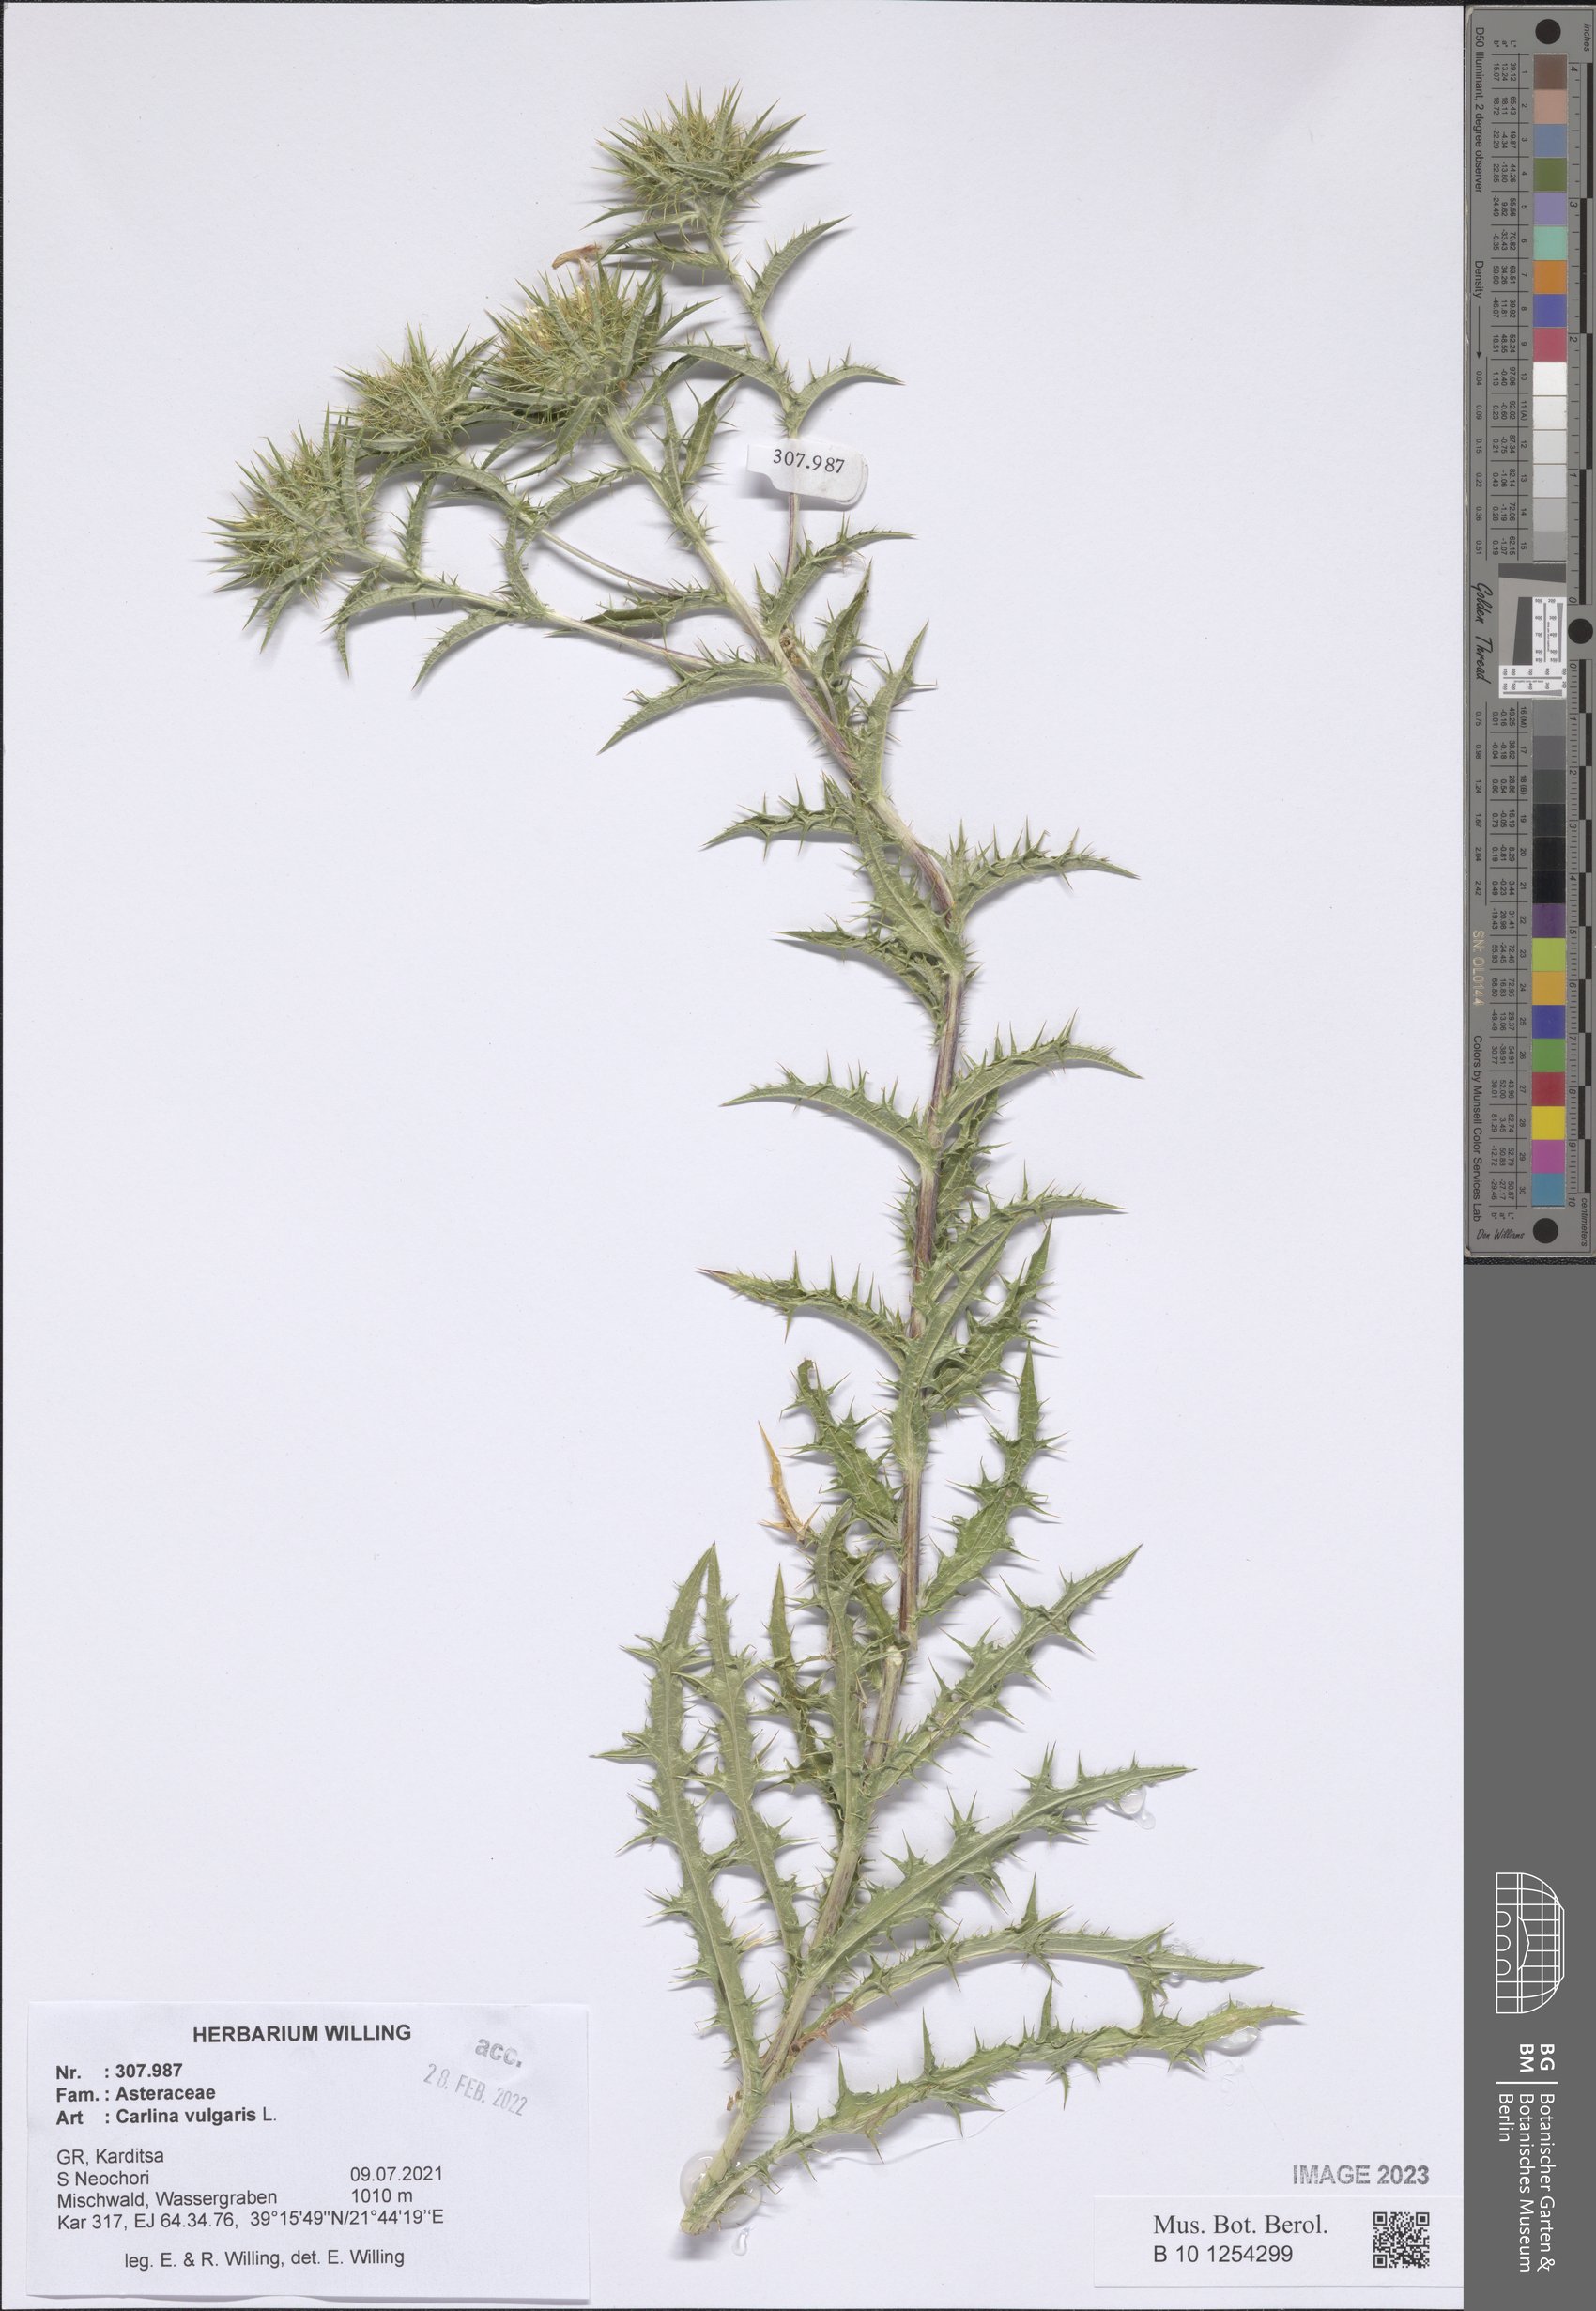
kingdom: Plantae
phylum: Tracheophyta
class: Magnoliopsida
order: Asterales
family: Asteraceae
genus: Carlina
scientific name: Carlina vulgaris
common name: Carline thistle
